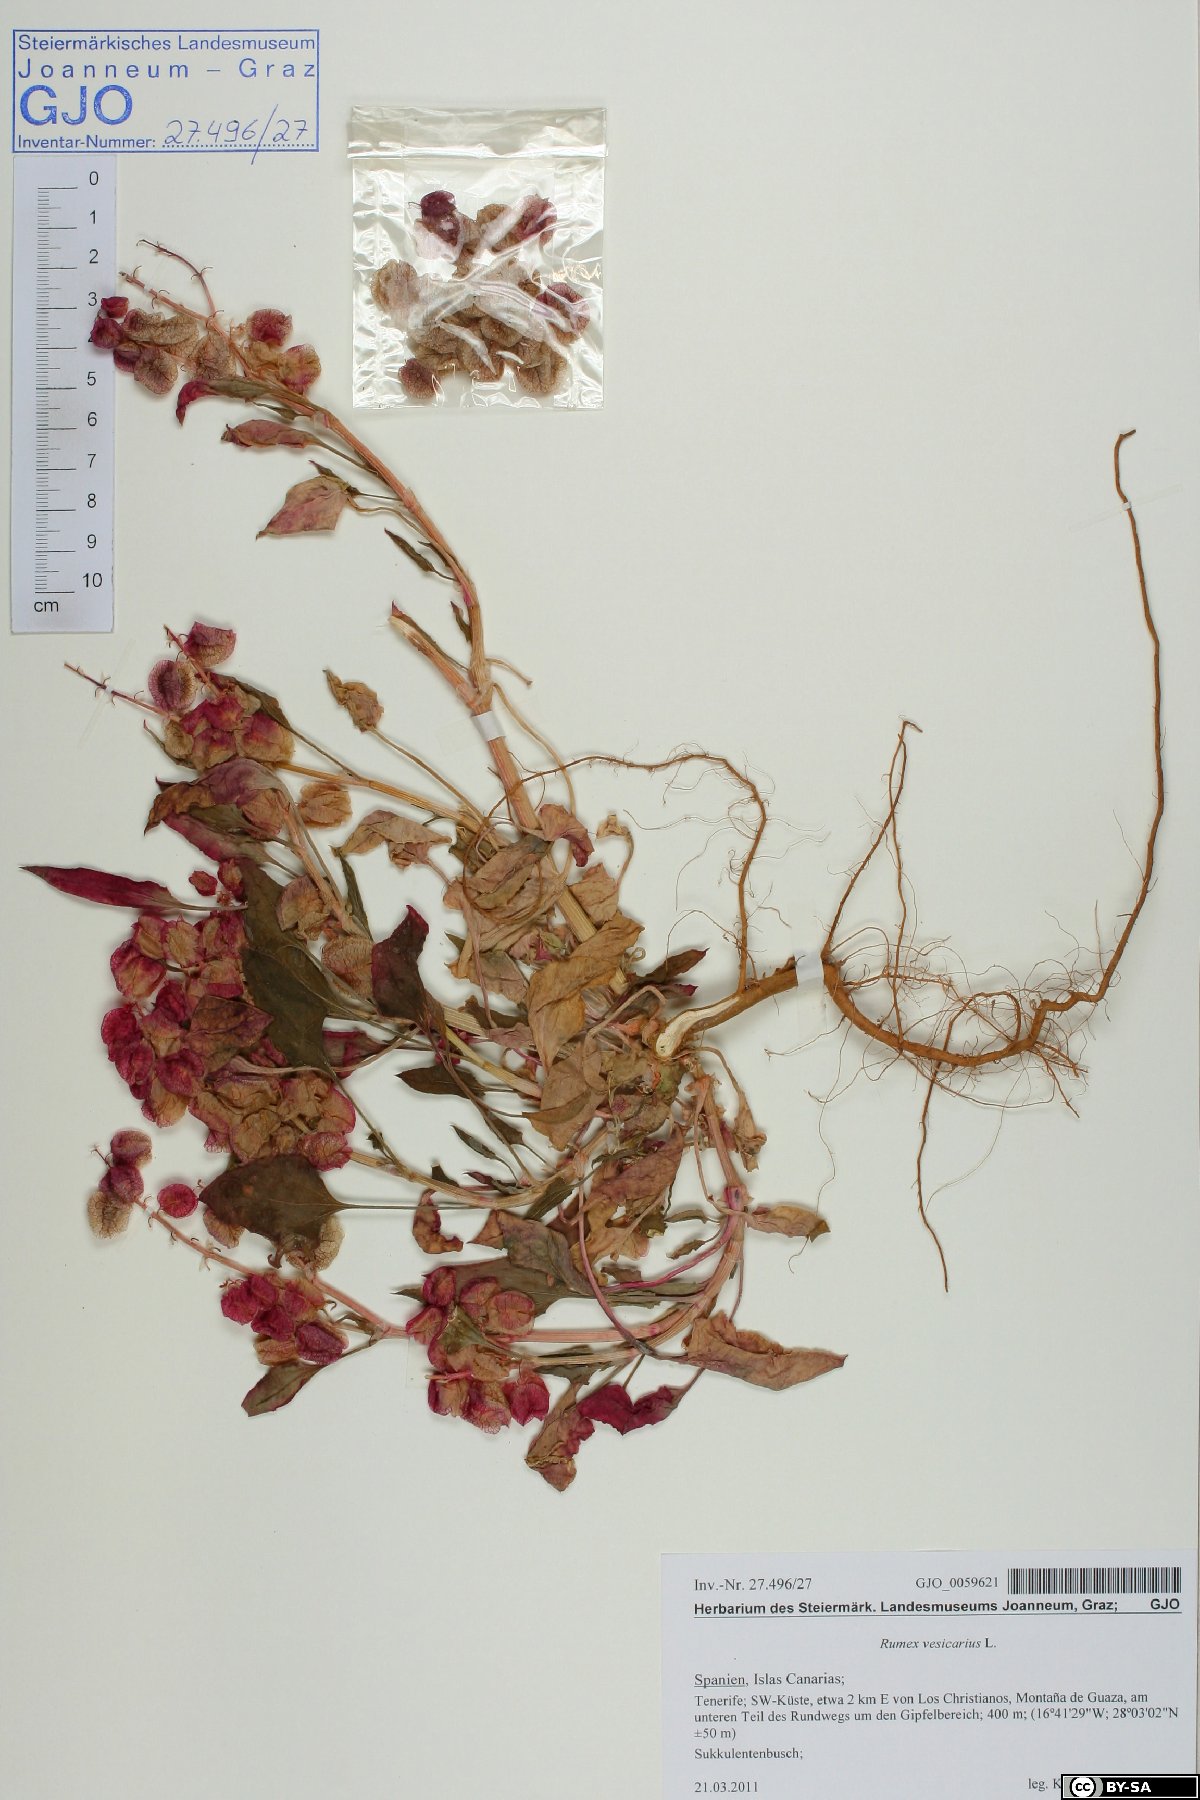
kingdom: Plantae
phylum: Tracheophyta
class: Magnoliopsida
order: Caryophyllales
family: Polygonaceae
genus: Rumex
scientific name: Rumex vesicarius
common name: Bladder dock
